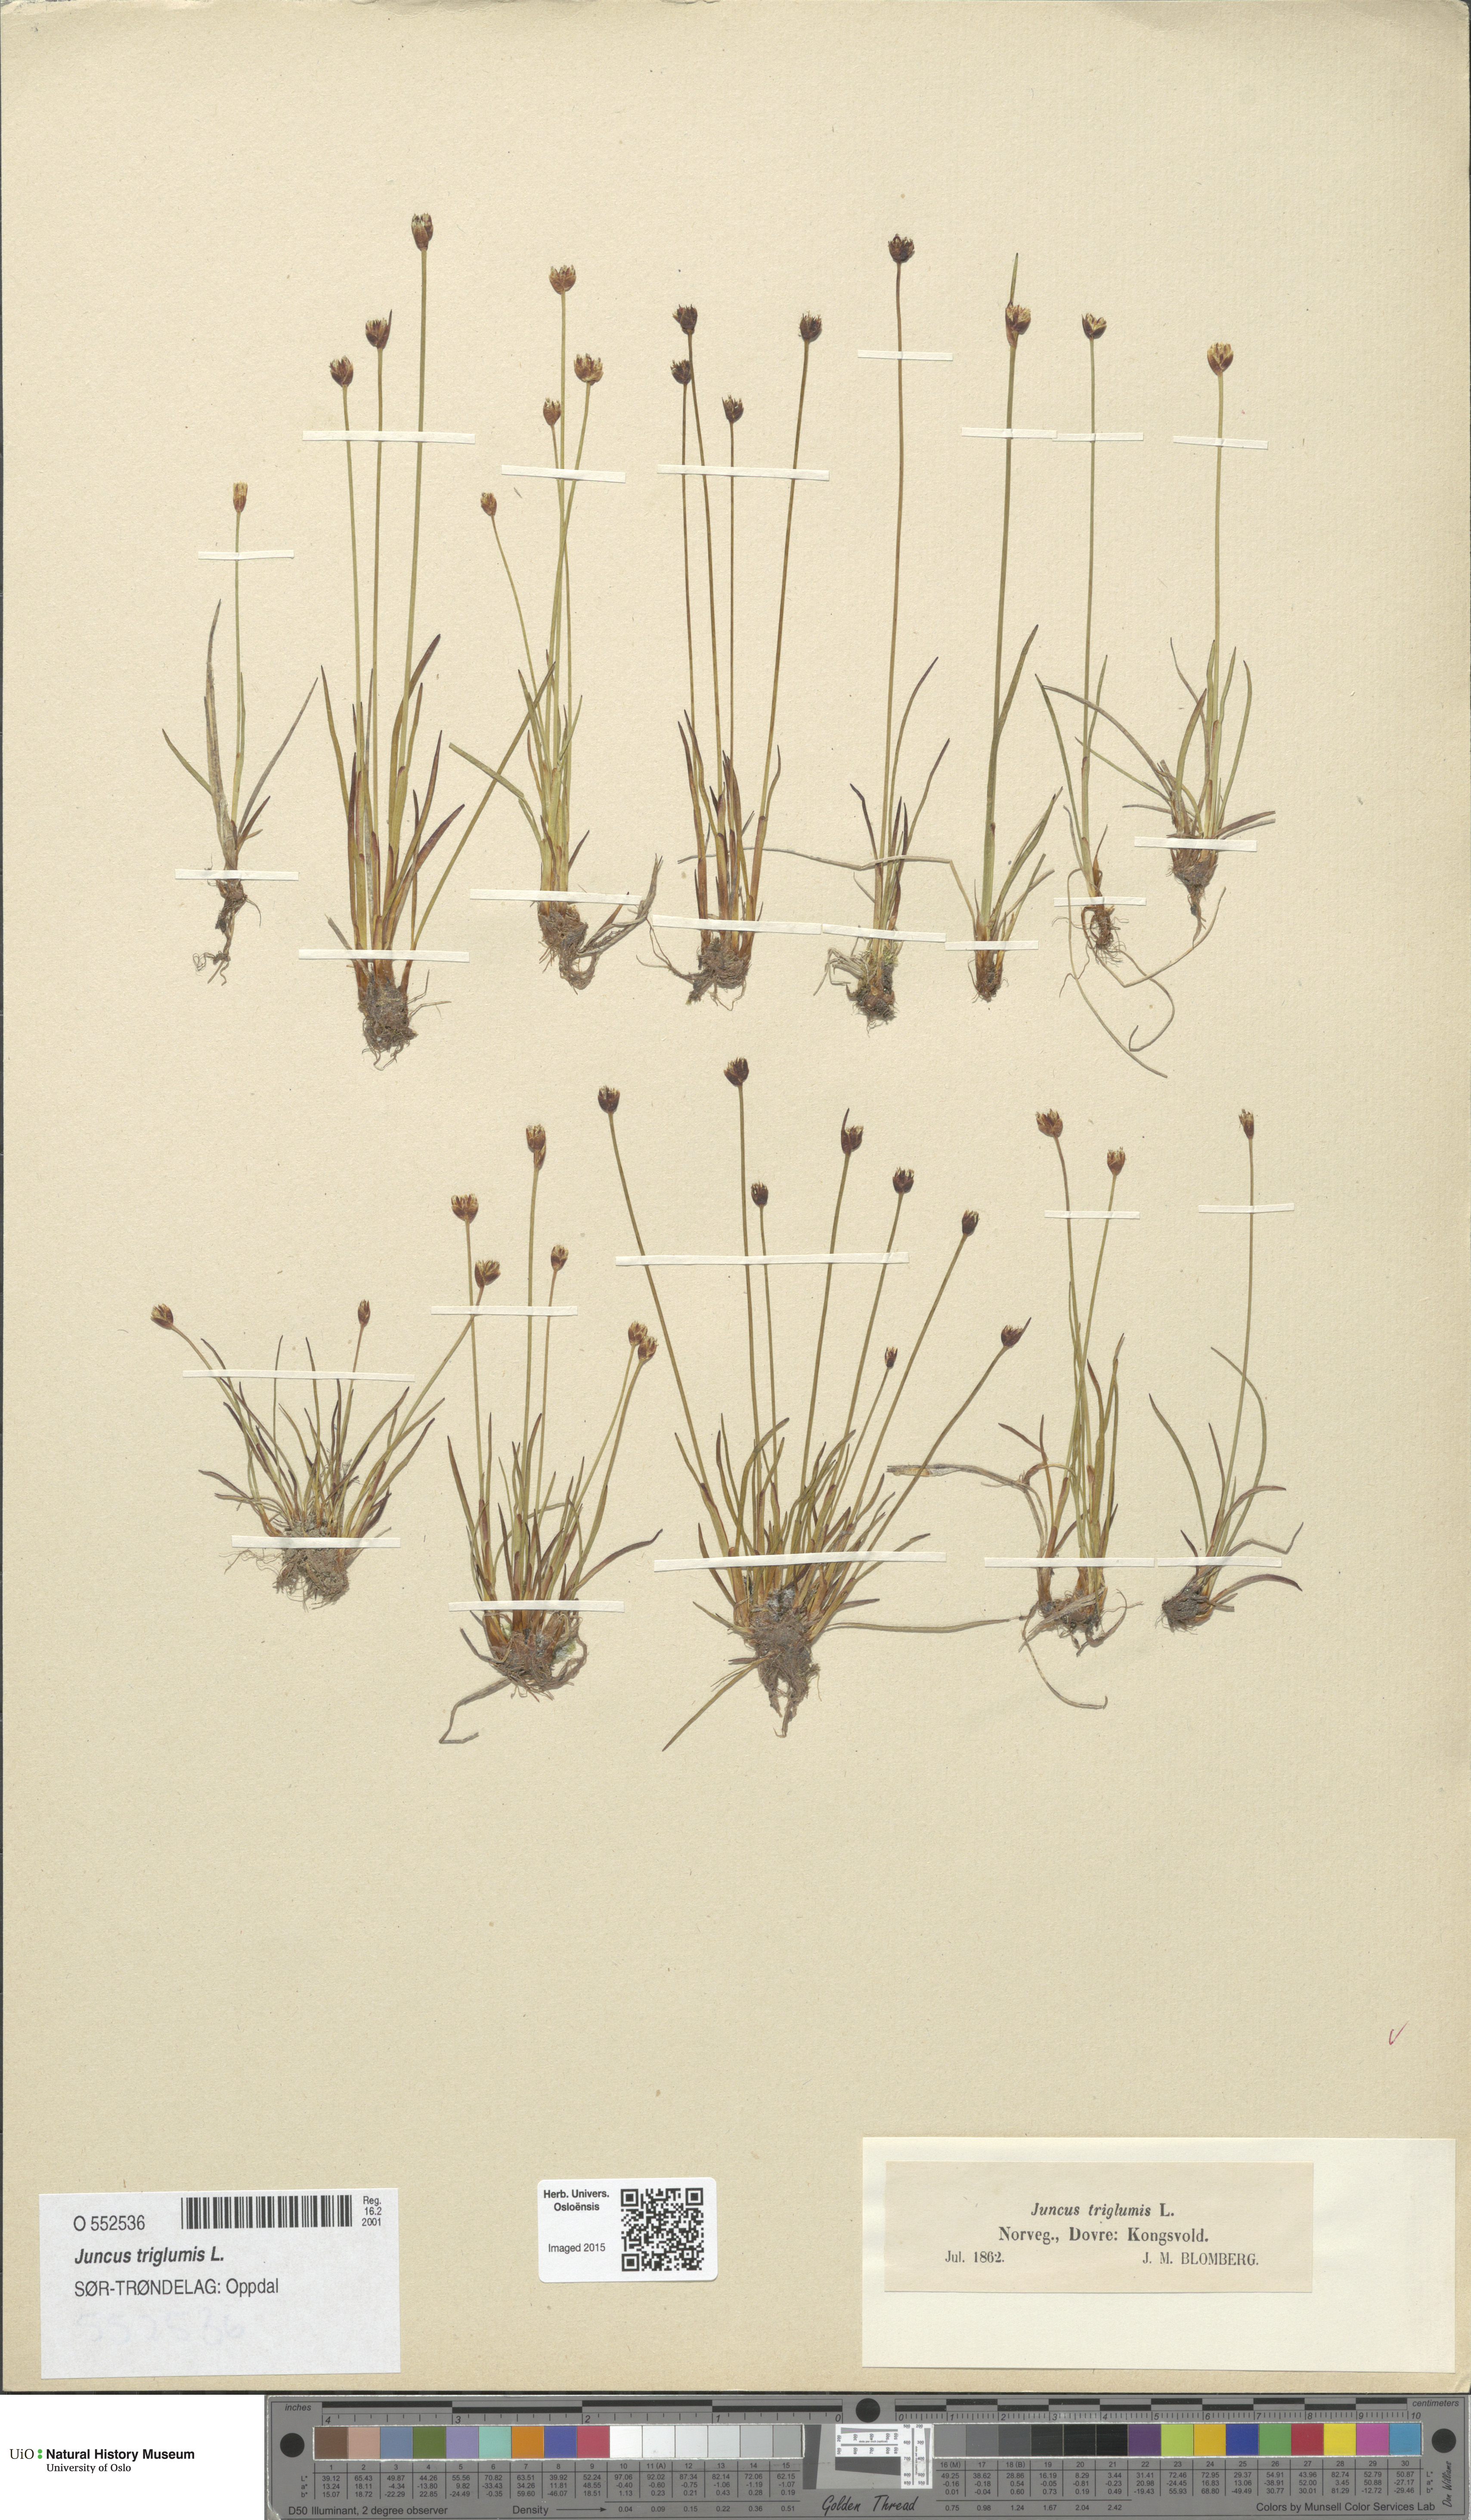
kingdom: Plantae
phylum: Tracheophyta
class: Liliopsida
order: Poales
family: Juncaceae
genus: Juncus
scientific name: Juncus triglumis
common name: Three-flowered rush
